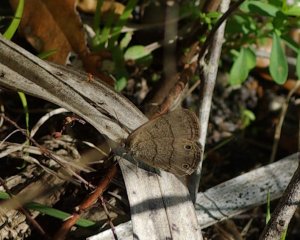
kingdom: Animalia
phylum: Arthropoda
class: Insecta
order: Lepidoptera
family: Nymphalidae
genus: Hermeuptychia
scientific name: Hermeuptychia hermes
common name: Carolina Satyr
